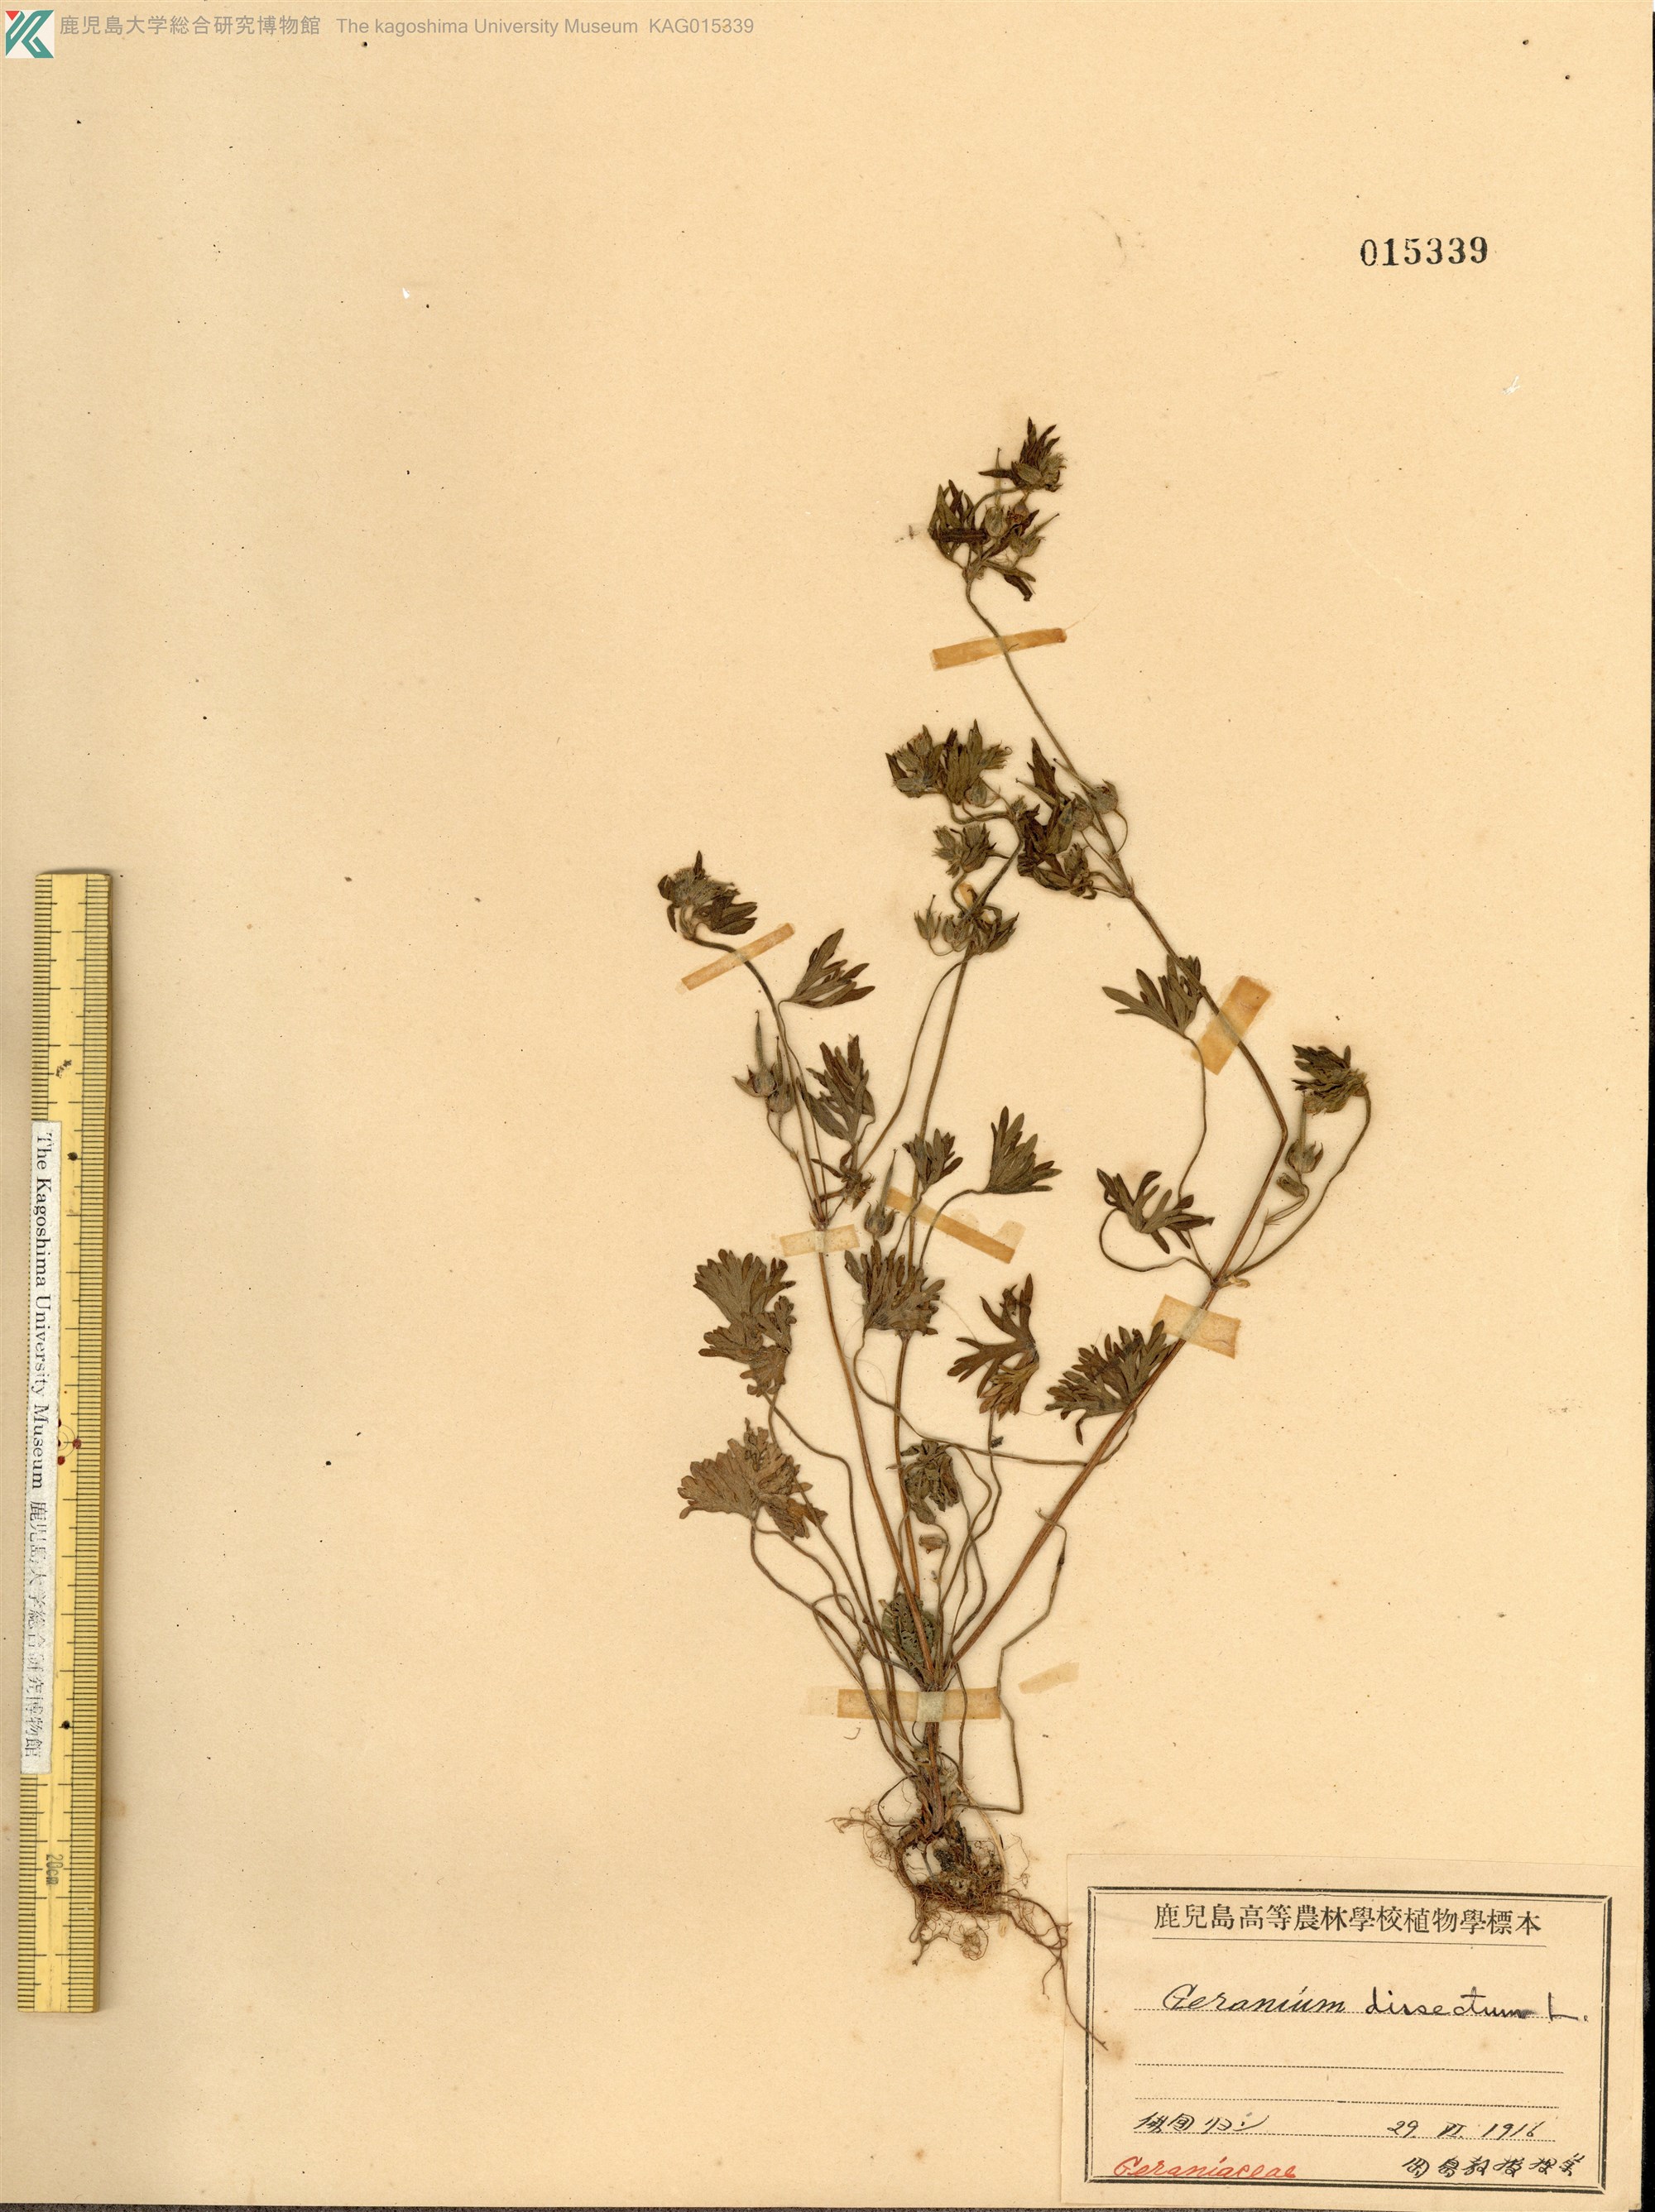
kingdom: Plantae
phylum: Tracheophyta
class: Magnoliopsida
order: Geraniales
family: Geraniaceae
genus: Geranium
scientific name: Geranium dissectum
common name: Cut-leaved crane's-bill
